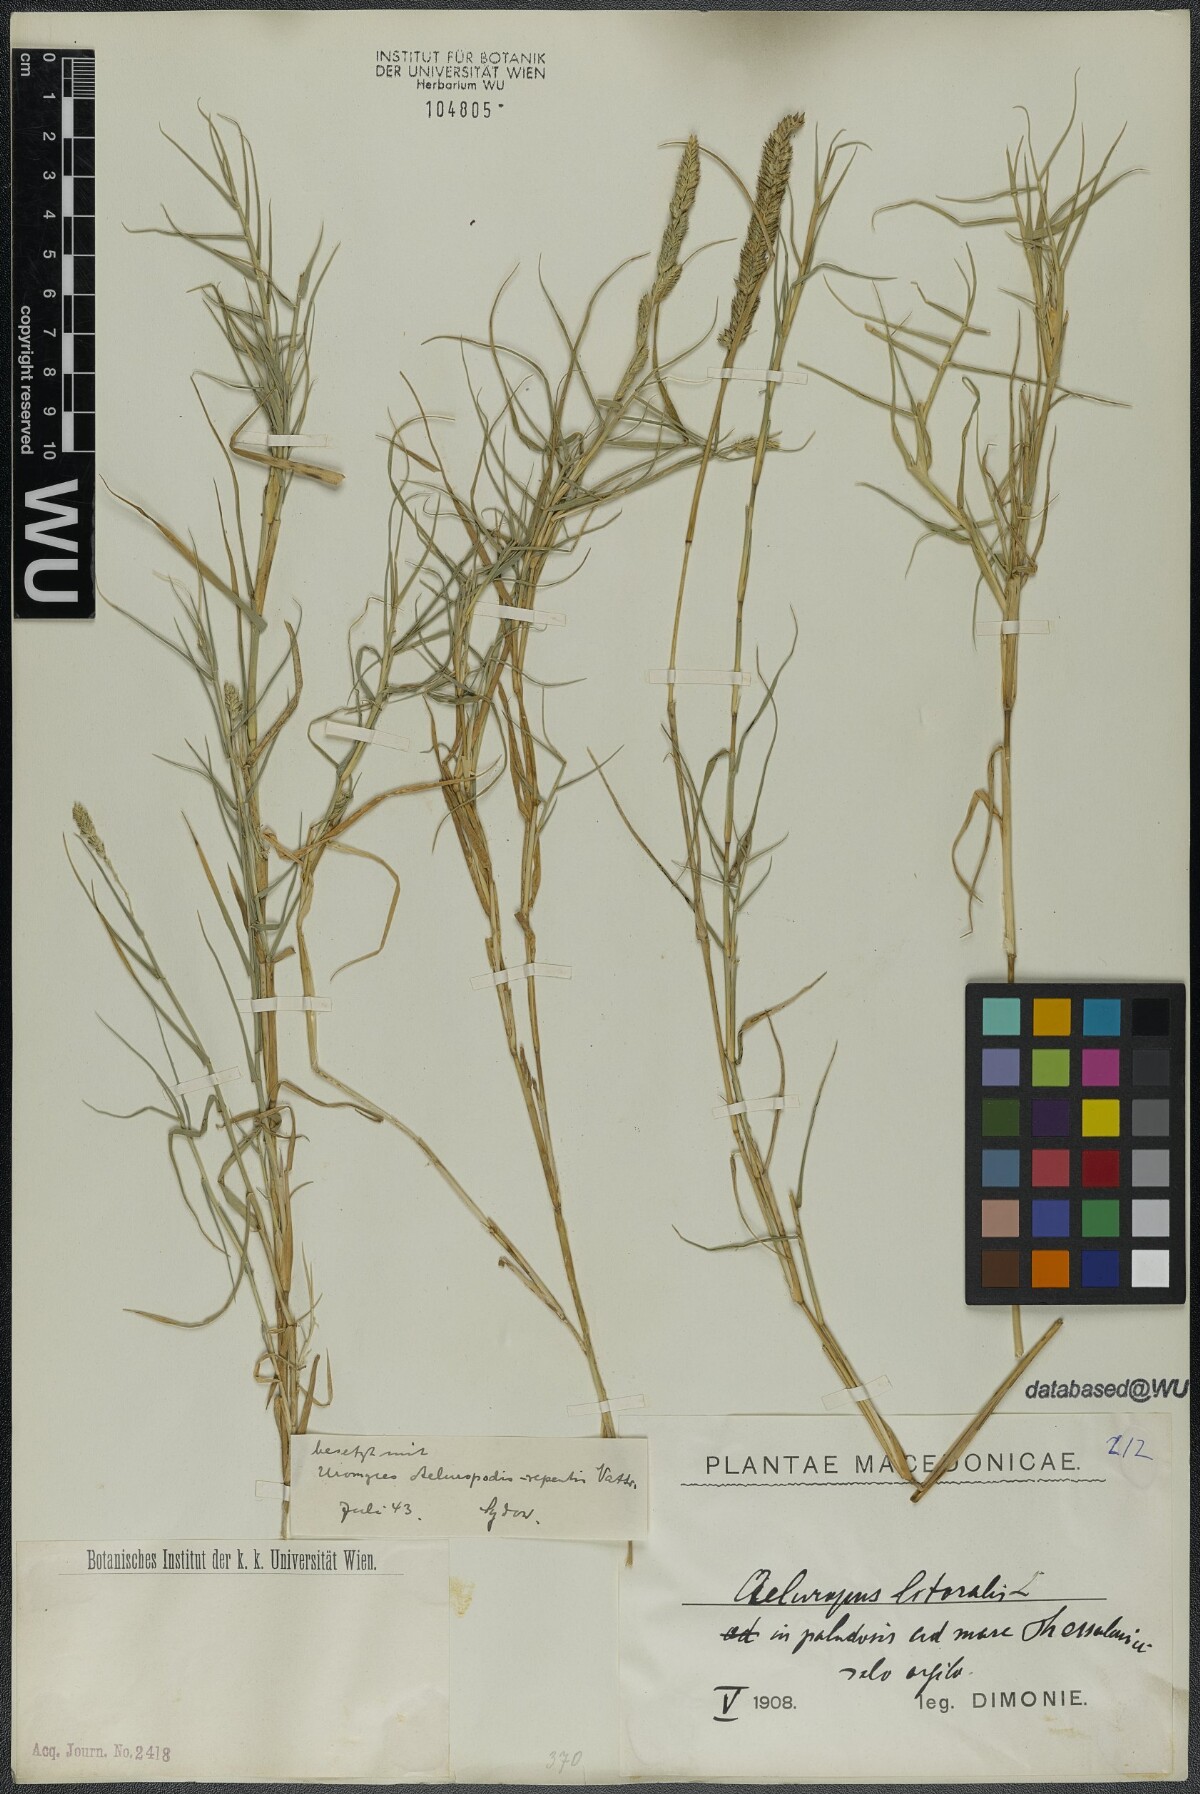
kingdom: Plantae
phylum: Tracheophyta
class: Liliopsida
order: Poales
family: Poaceae
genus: Aeluropus
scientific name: Aeluropus littoralis
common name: Indian walnut
